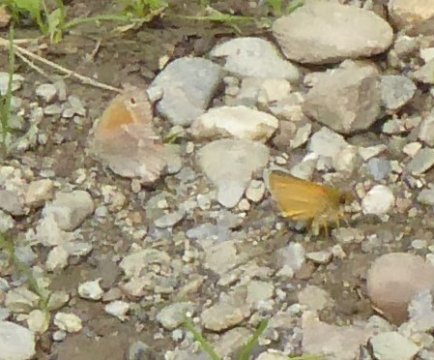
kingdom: Animalia
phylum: Arthropoda
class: Insecta
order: Lepidoptera
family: Nymphalidae
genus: Coenonympha
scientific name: Coenonympha tullia
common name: Large Heath
